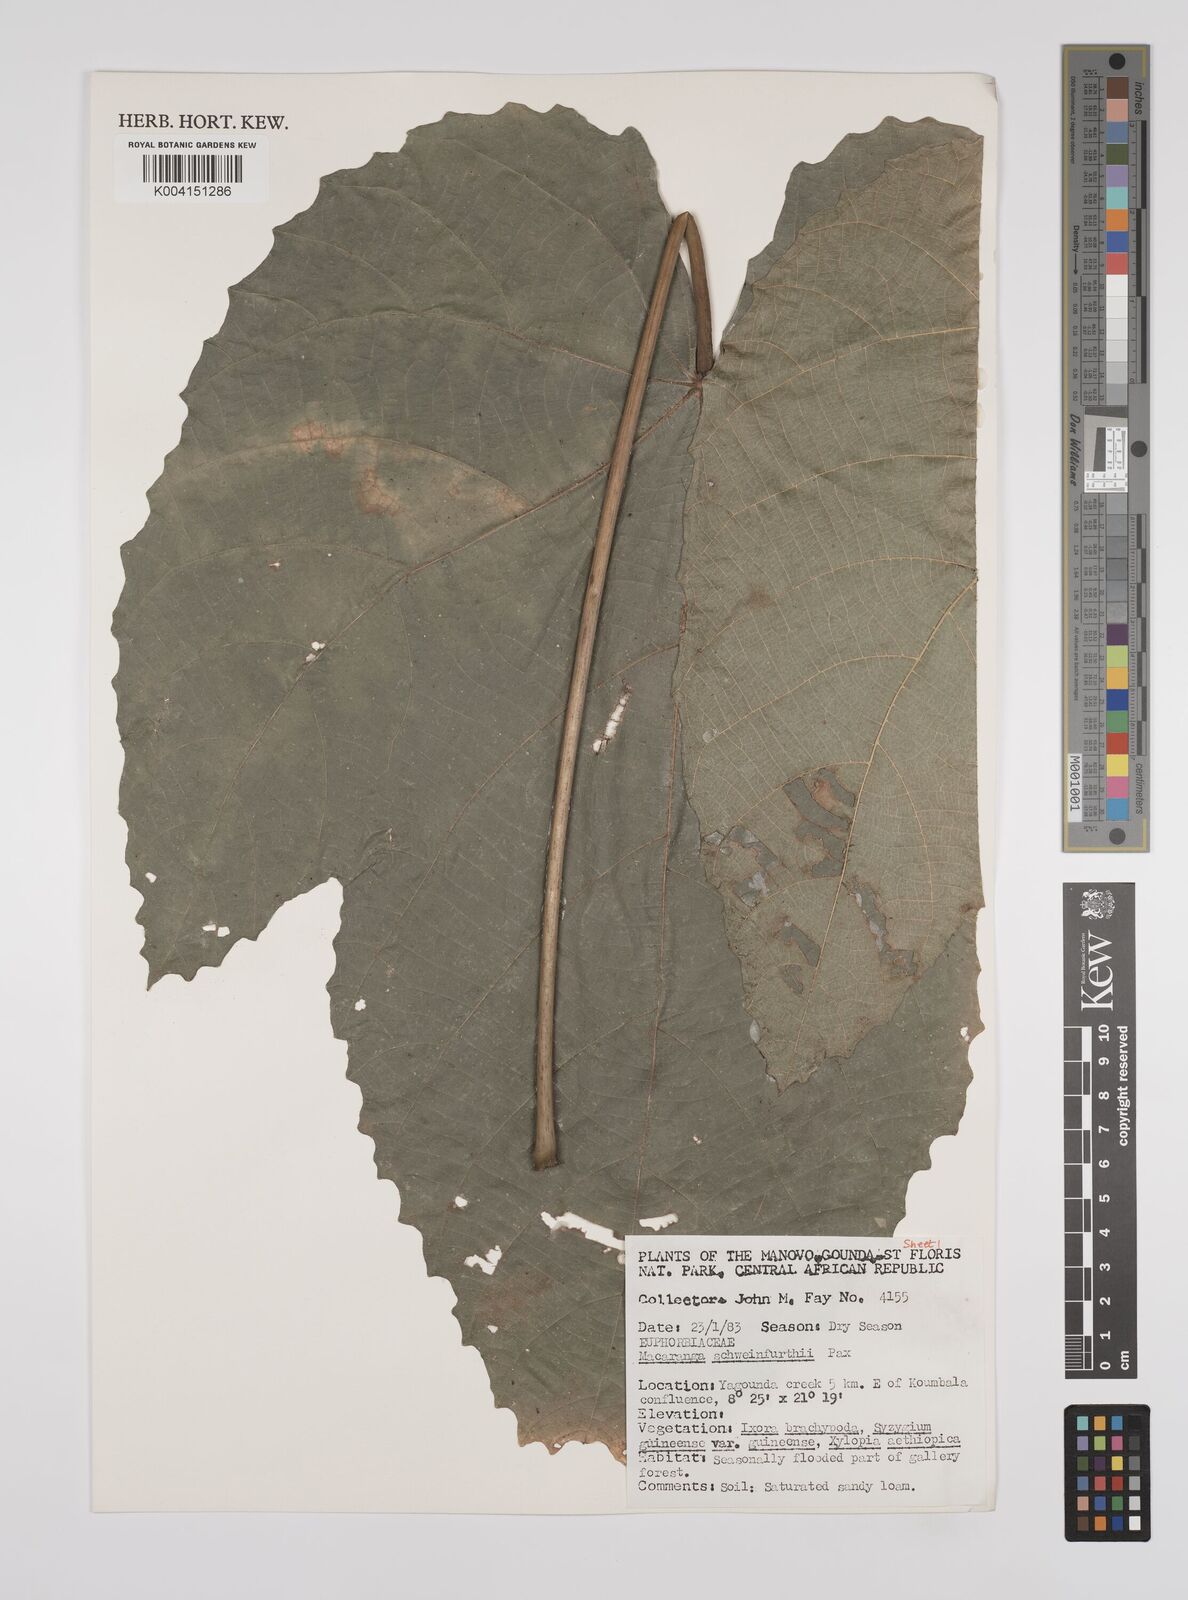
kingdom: Plantae
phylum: Tracheophyta
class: Magnoliopsida
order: Malpighiales
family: Euphorbiaceae
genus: Macaranga
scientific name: Macaranga schweinfurthii
